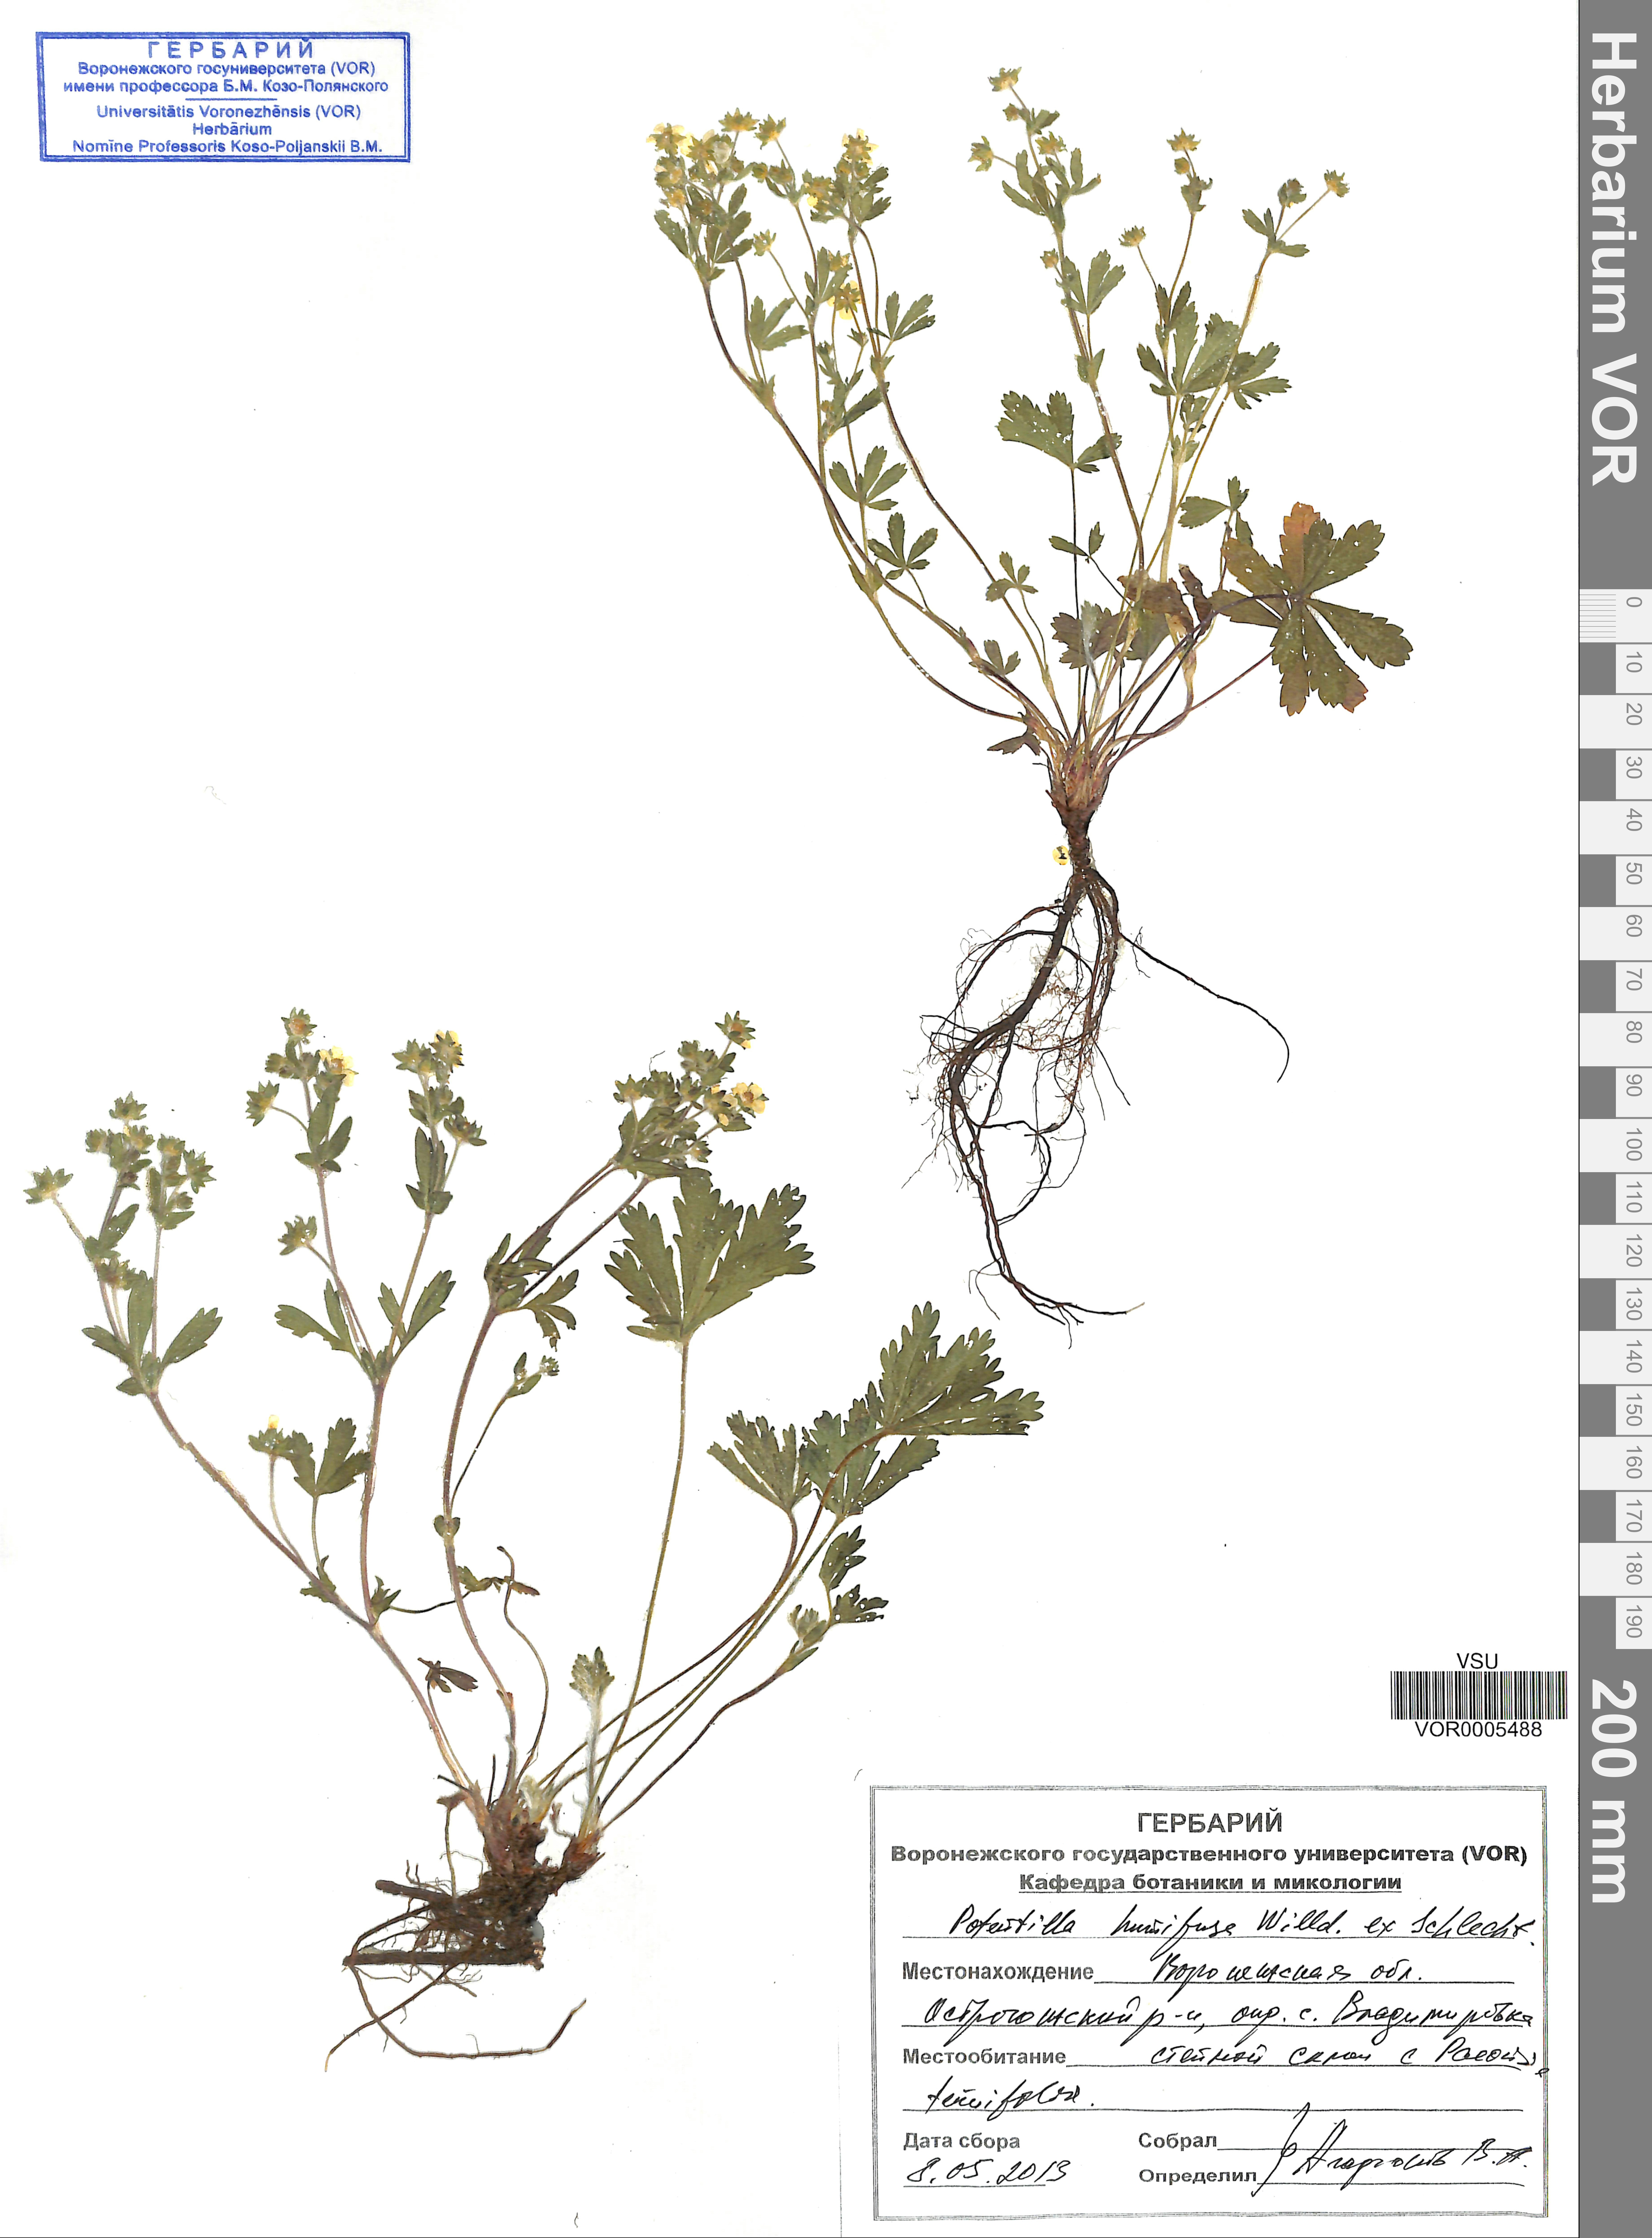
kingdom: Plantae
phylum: Tracheophyta
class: Magnoliopsida
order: Rosales
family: Rosaceae
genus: Potentilla
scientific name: Potentilla humifusa
